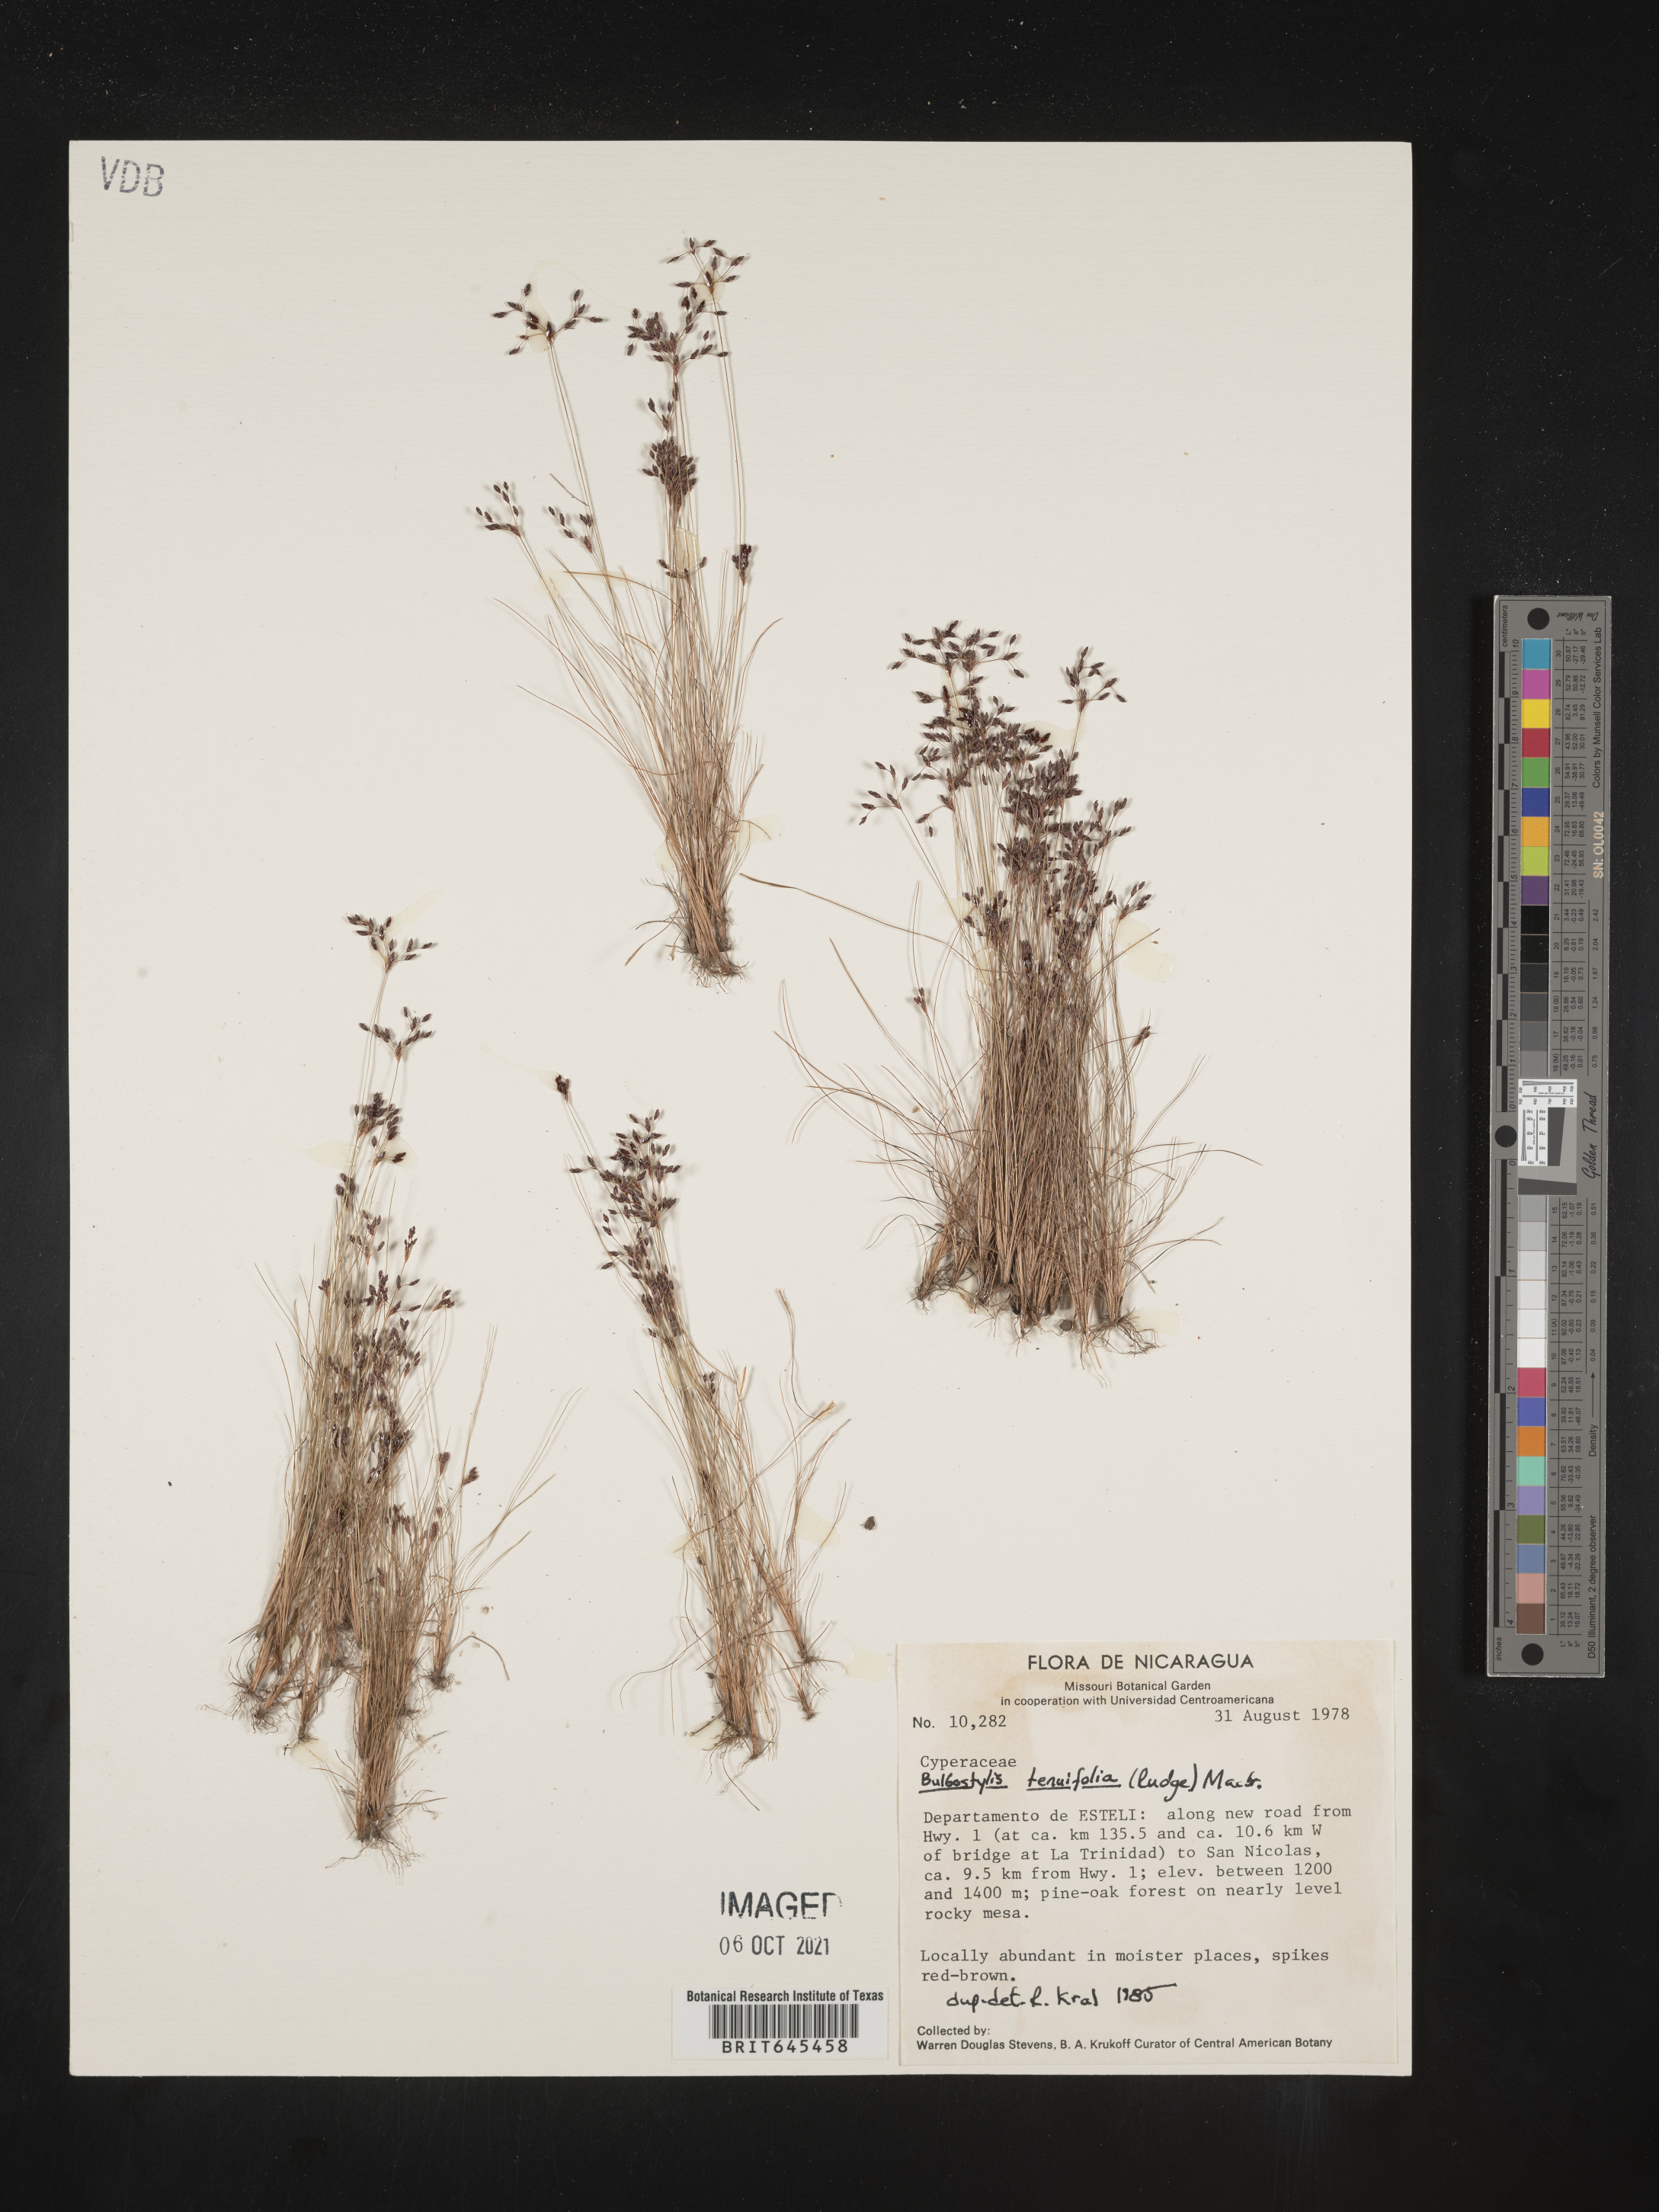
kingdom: Plantae
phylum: Tracheophyta
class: Liliopsida
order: Poales
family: Cyperaceae
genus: Eleocharis
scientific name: Eleocharis Bulbostylis tenuifolia
